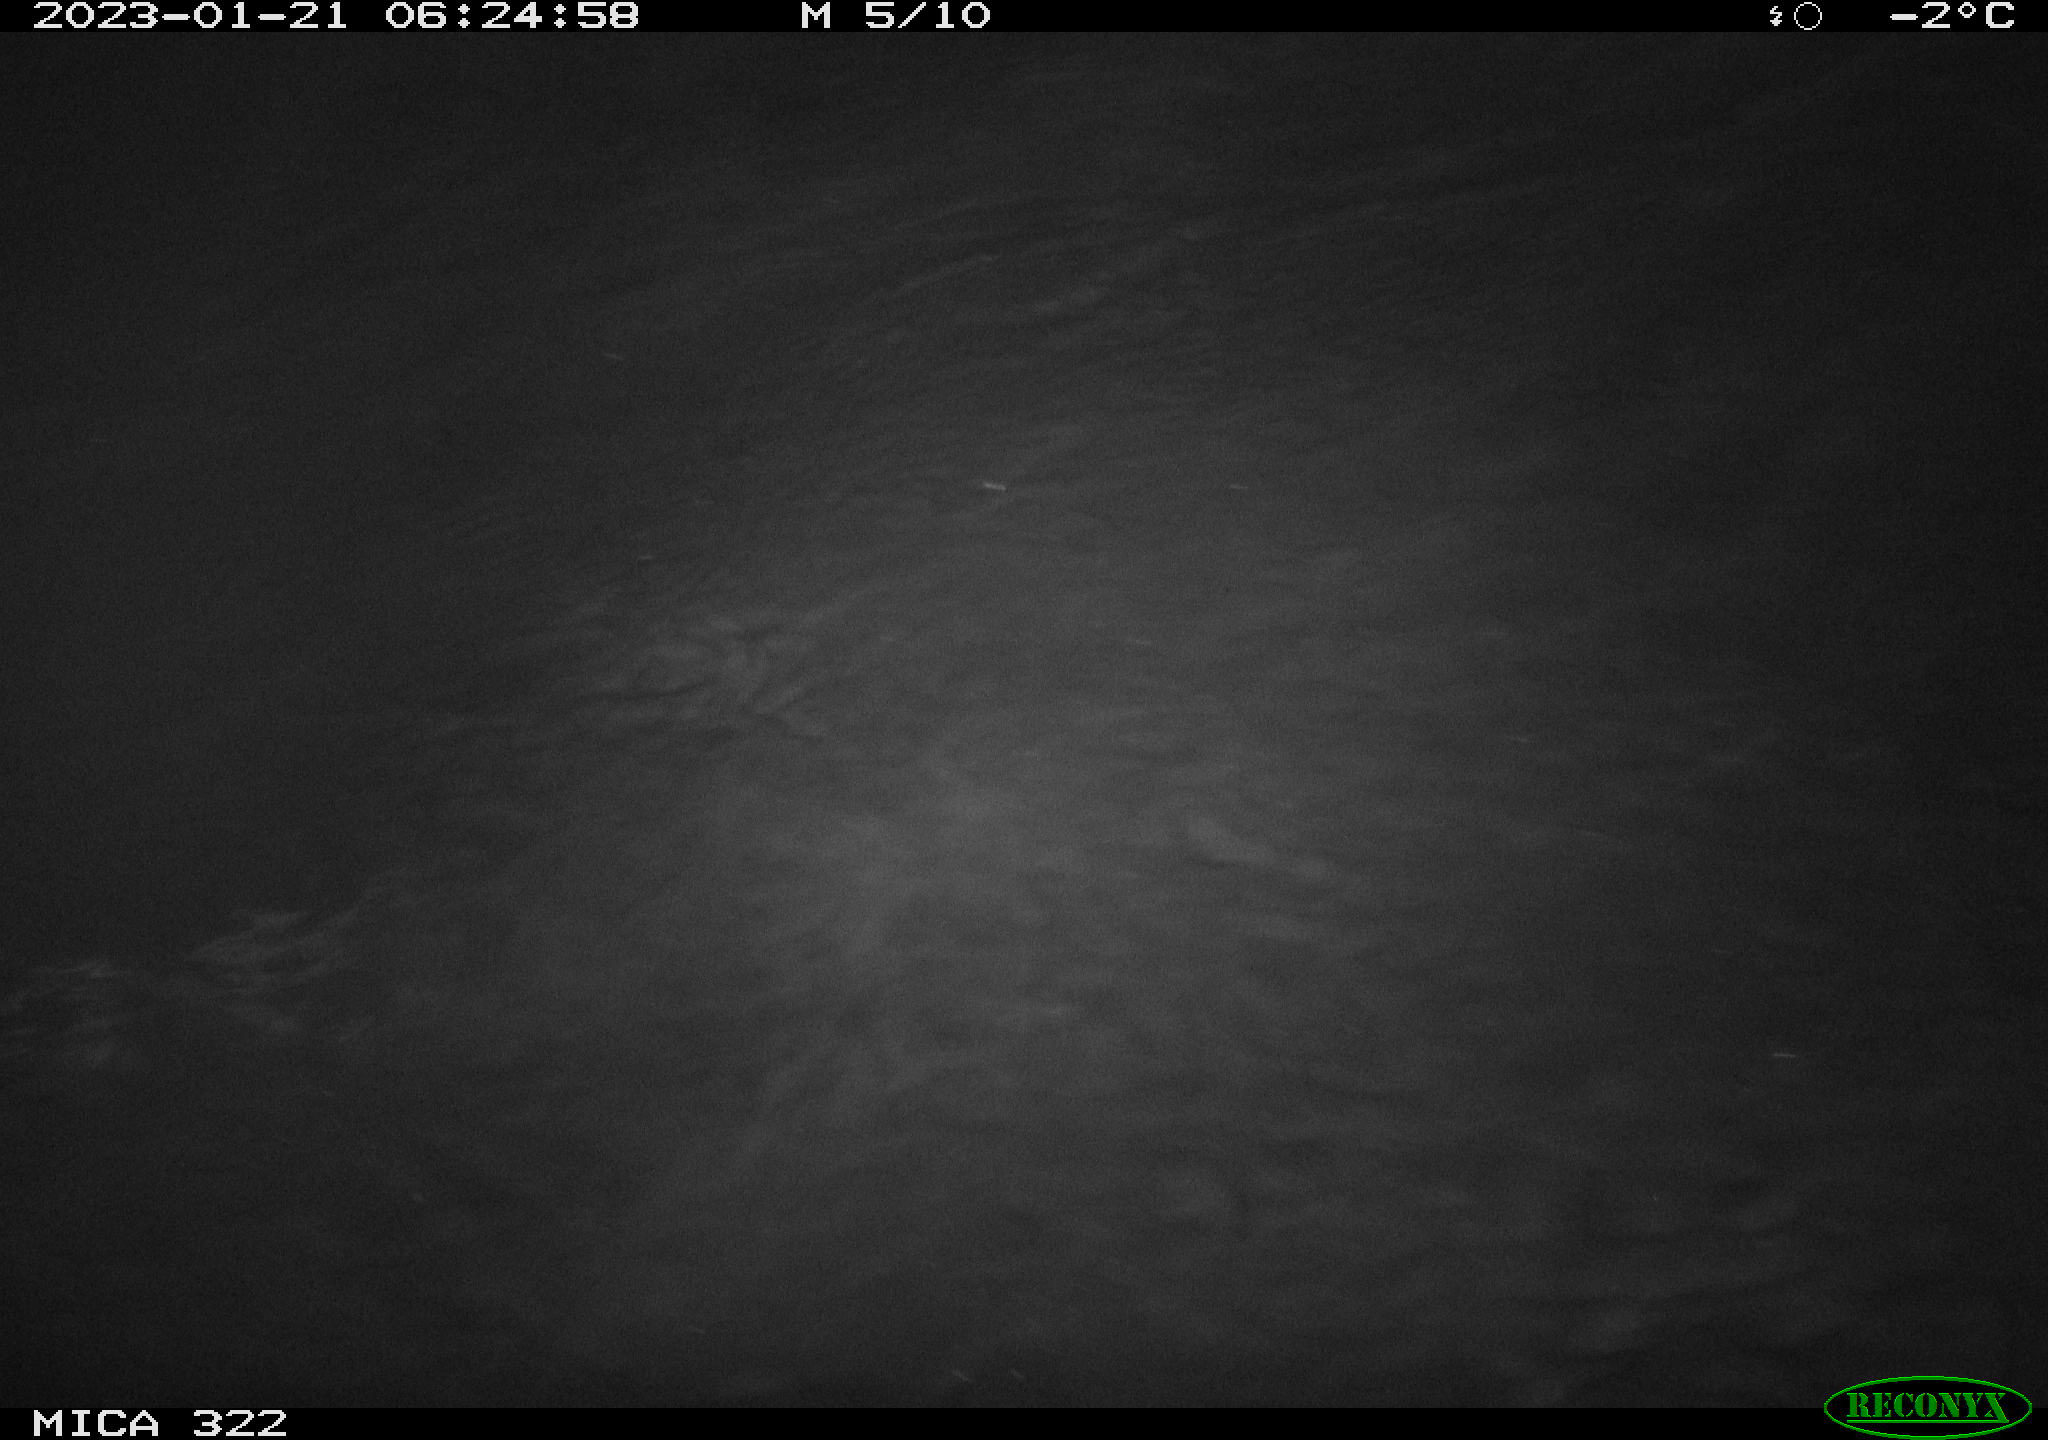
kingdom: Animalia
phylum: Chordata
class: Aves
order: Anseriformes
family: Anatidae
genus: Anas
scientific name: Anas
